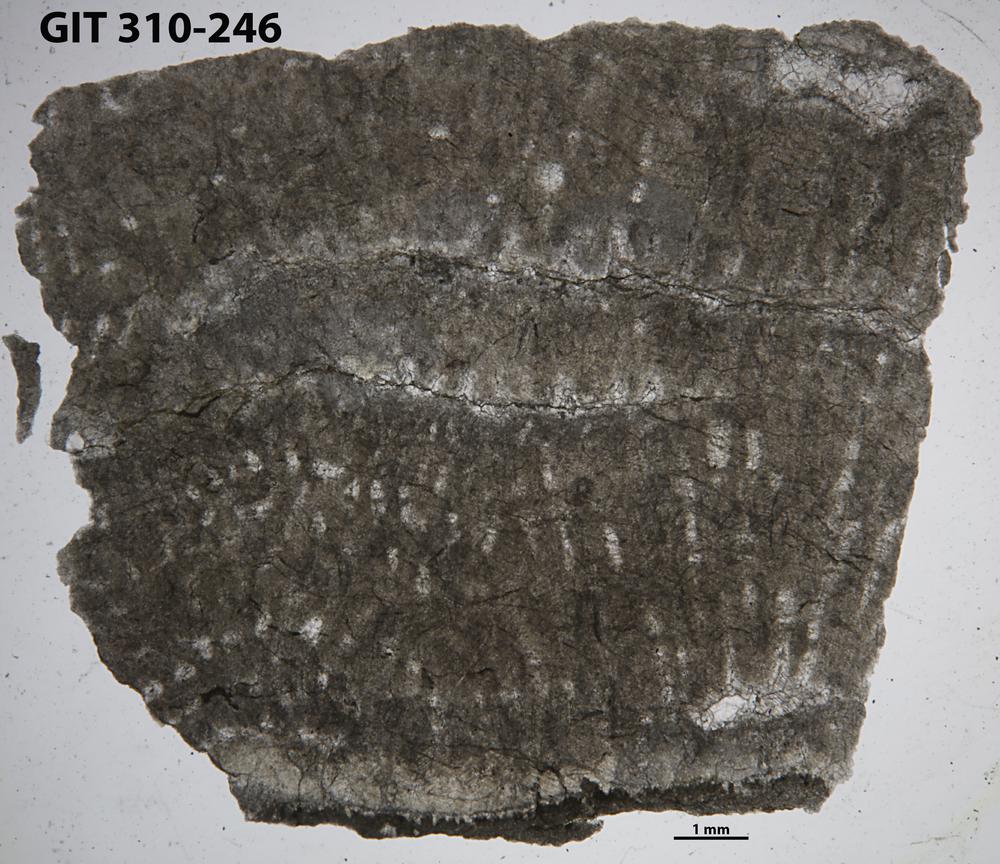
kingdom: Animalia
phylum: Porifera
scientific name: Porifera
